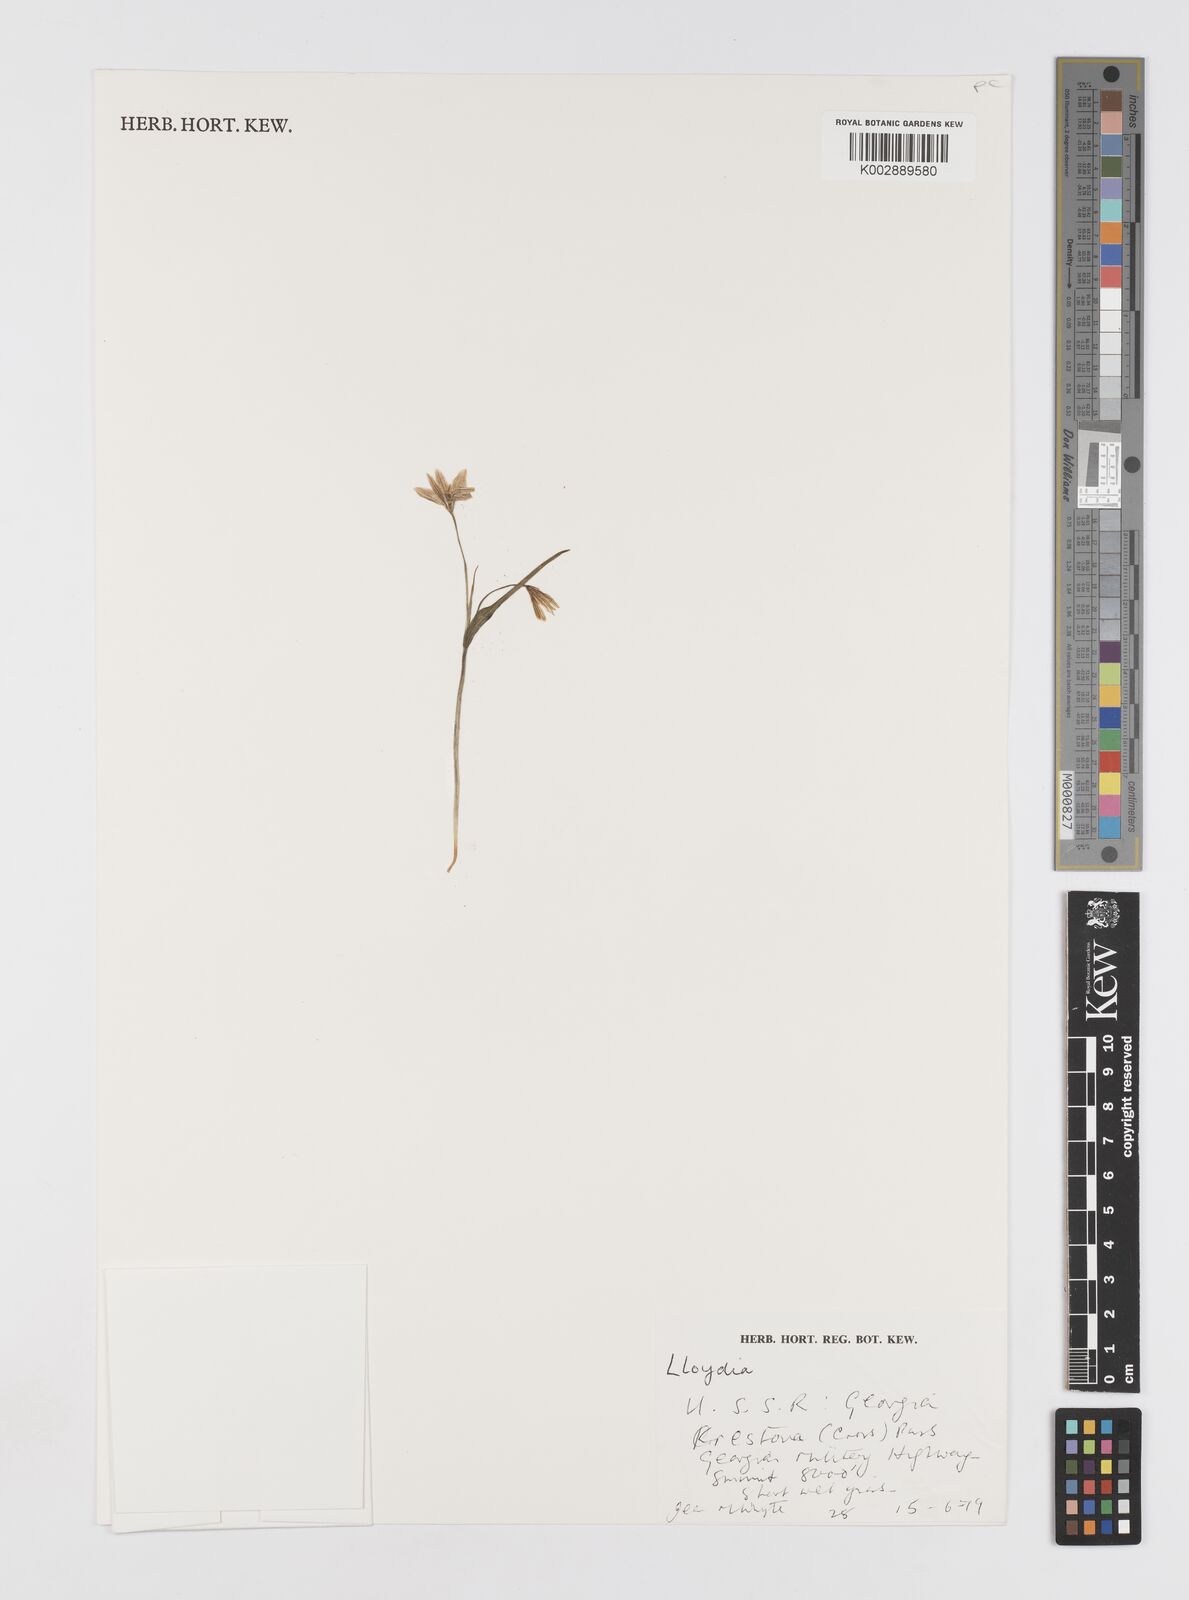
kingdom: Plantae
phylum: Tracheophyta
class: Liliopsida
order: Liliales
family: Liliaceae
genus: Gagea
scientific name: Gagea serotina
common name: Snowdon lily
